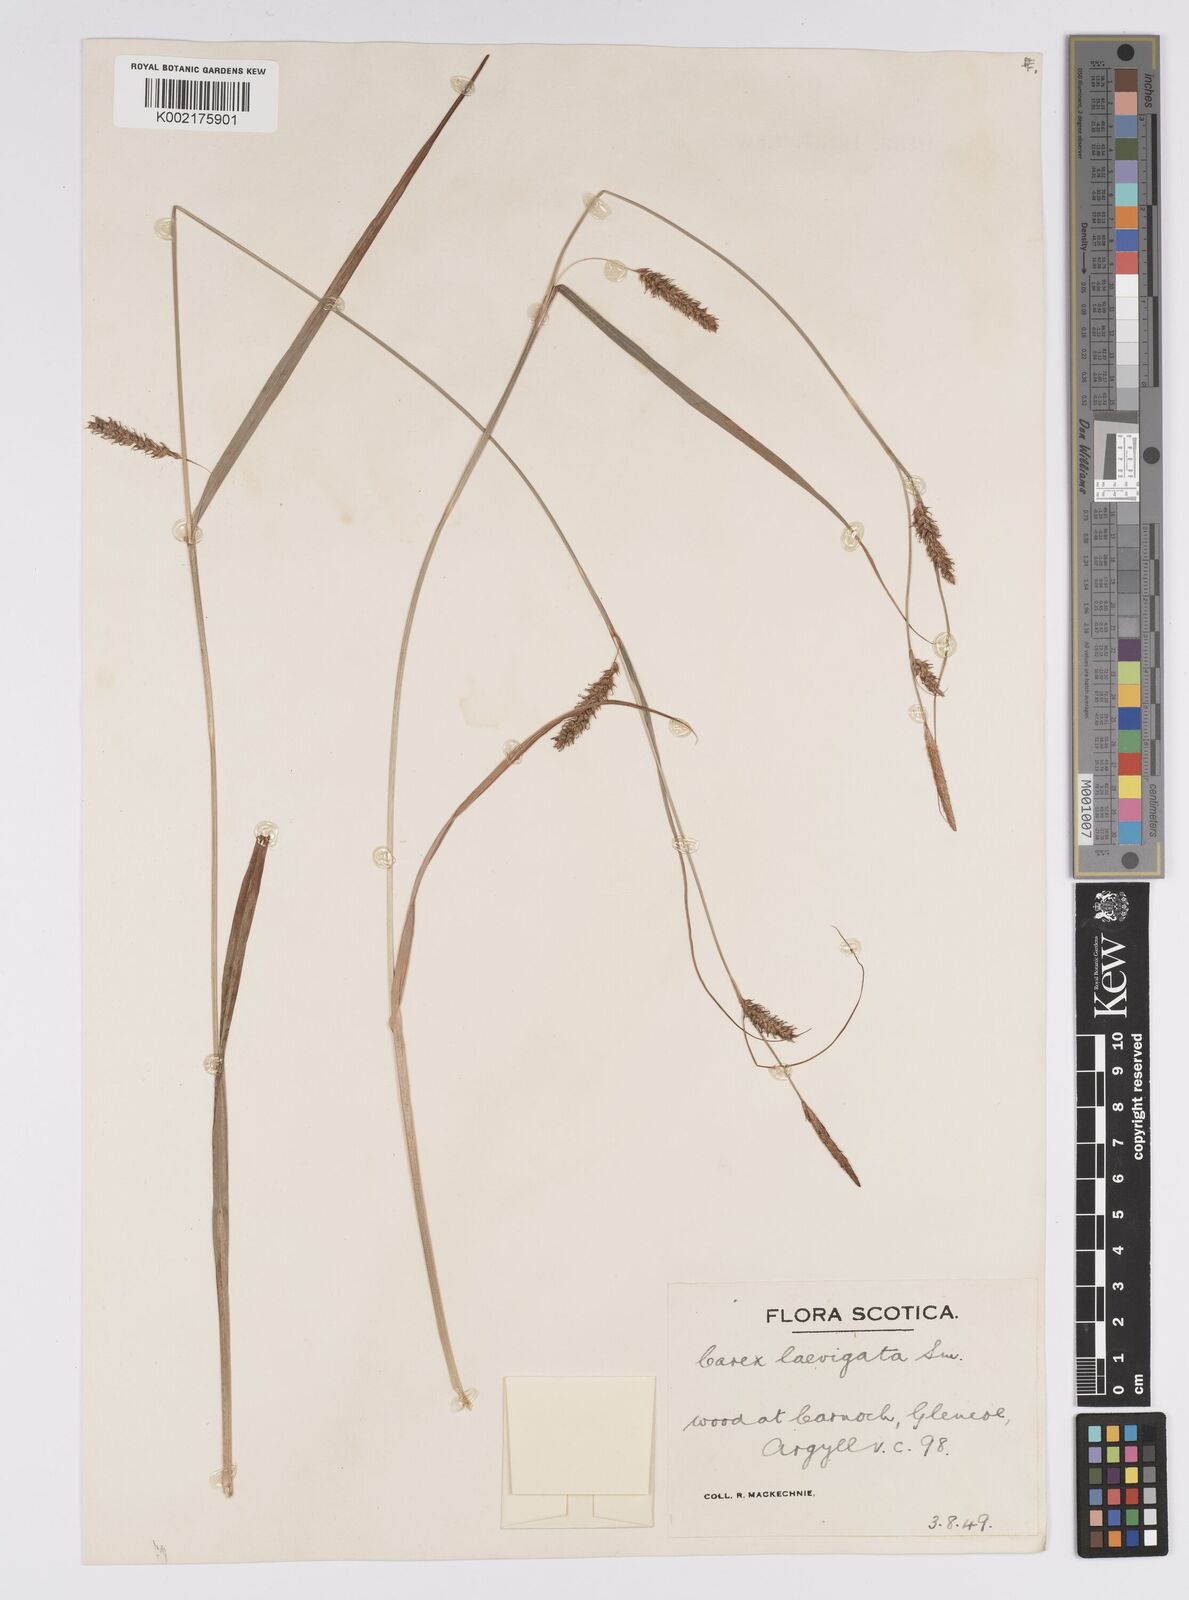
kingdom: Plantae
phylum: Tracheophyta
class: Liliopsida
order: Poales
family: Cyperaceae
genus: Carex
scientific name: Carex laevigata
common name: Smooth-stalked sedge
